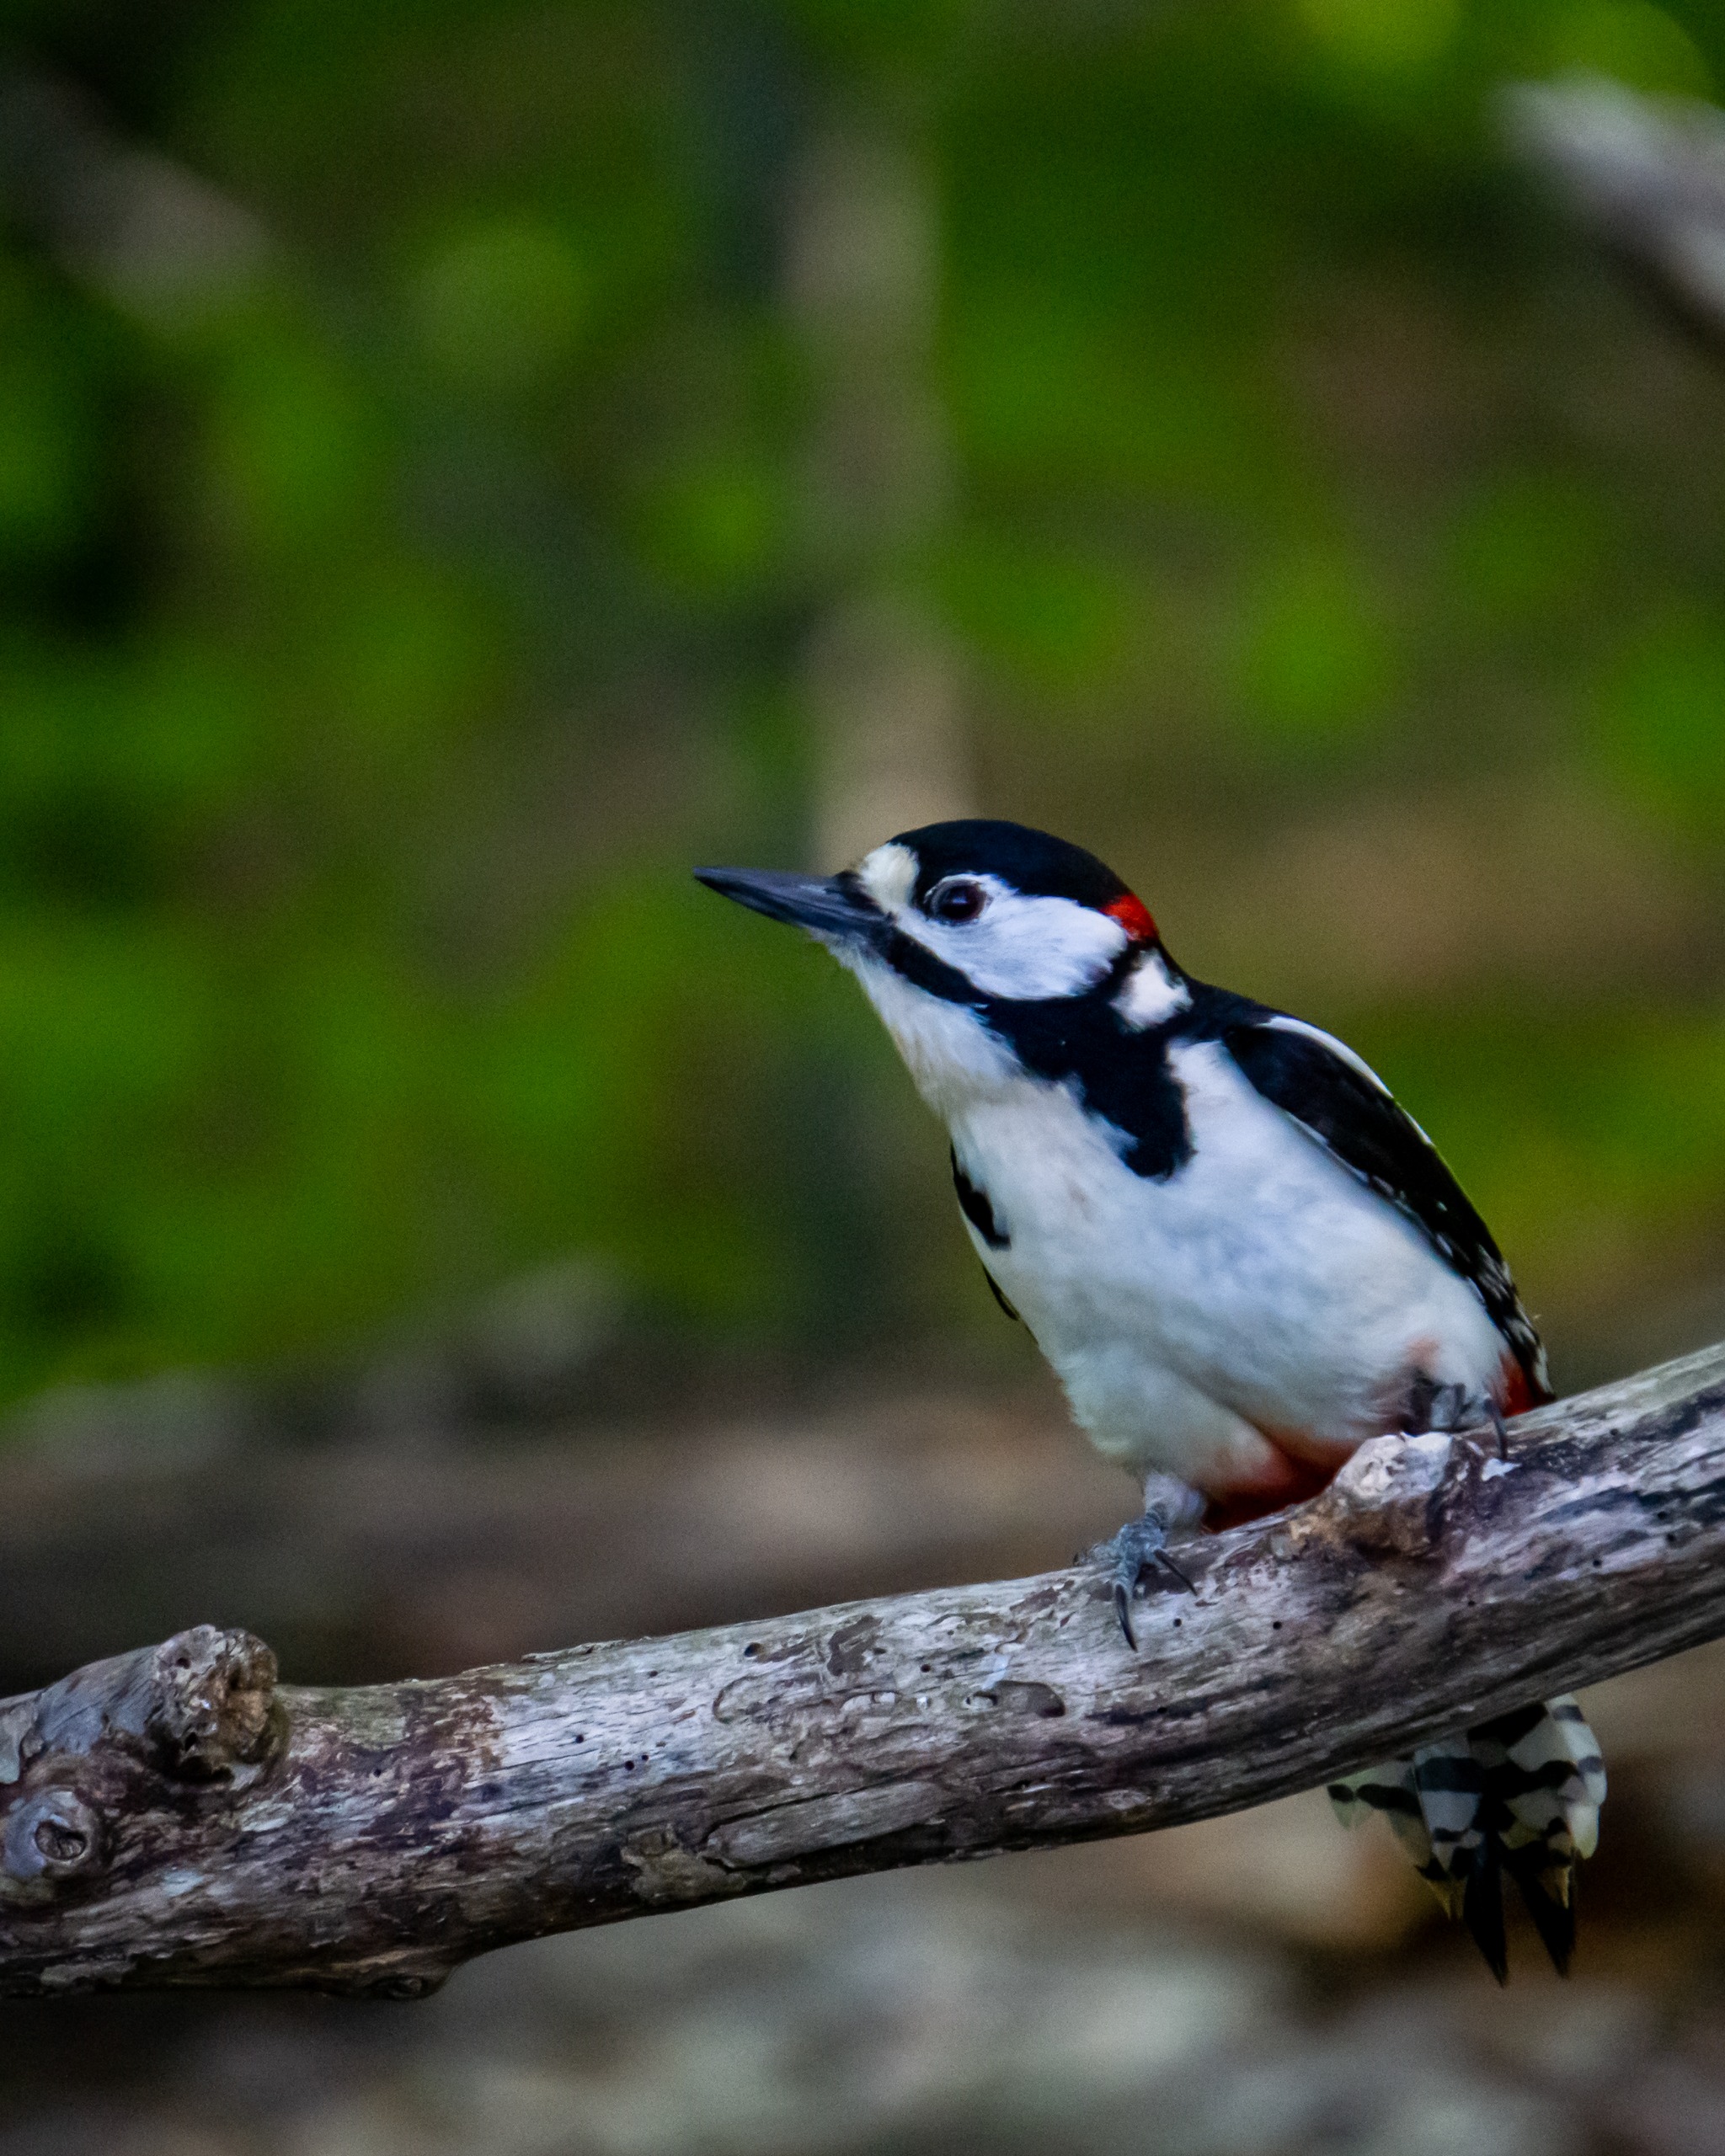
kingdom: Animalia
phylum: Chordata
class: Aves
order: Piciformes
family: Picidae
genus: Dendrocopos
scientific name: Dendrocopos major
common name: Stor flagspætte
